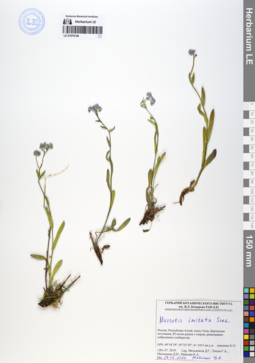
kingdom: Plantae
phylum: Tracheophyta
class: Magnoliopsida
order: Boraginales
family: Boraginaceae
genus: Myosotis
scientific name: Myosotis imitata
